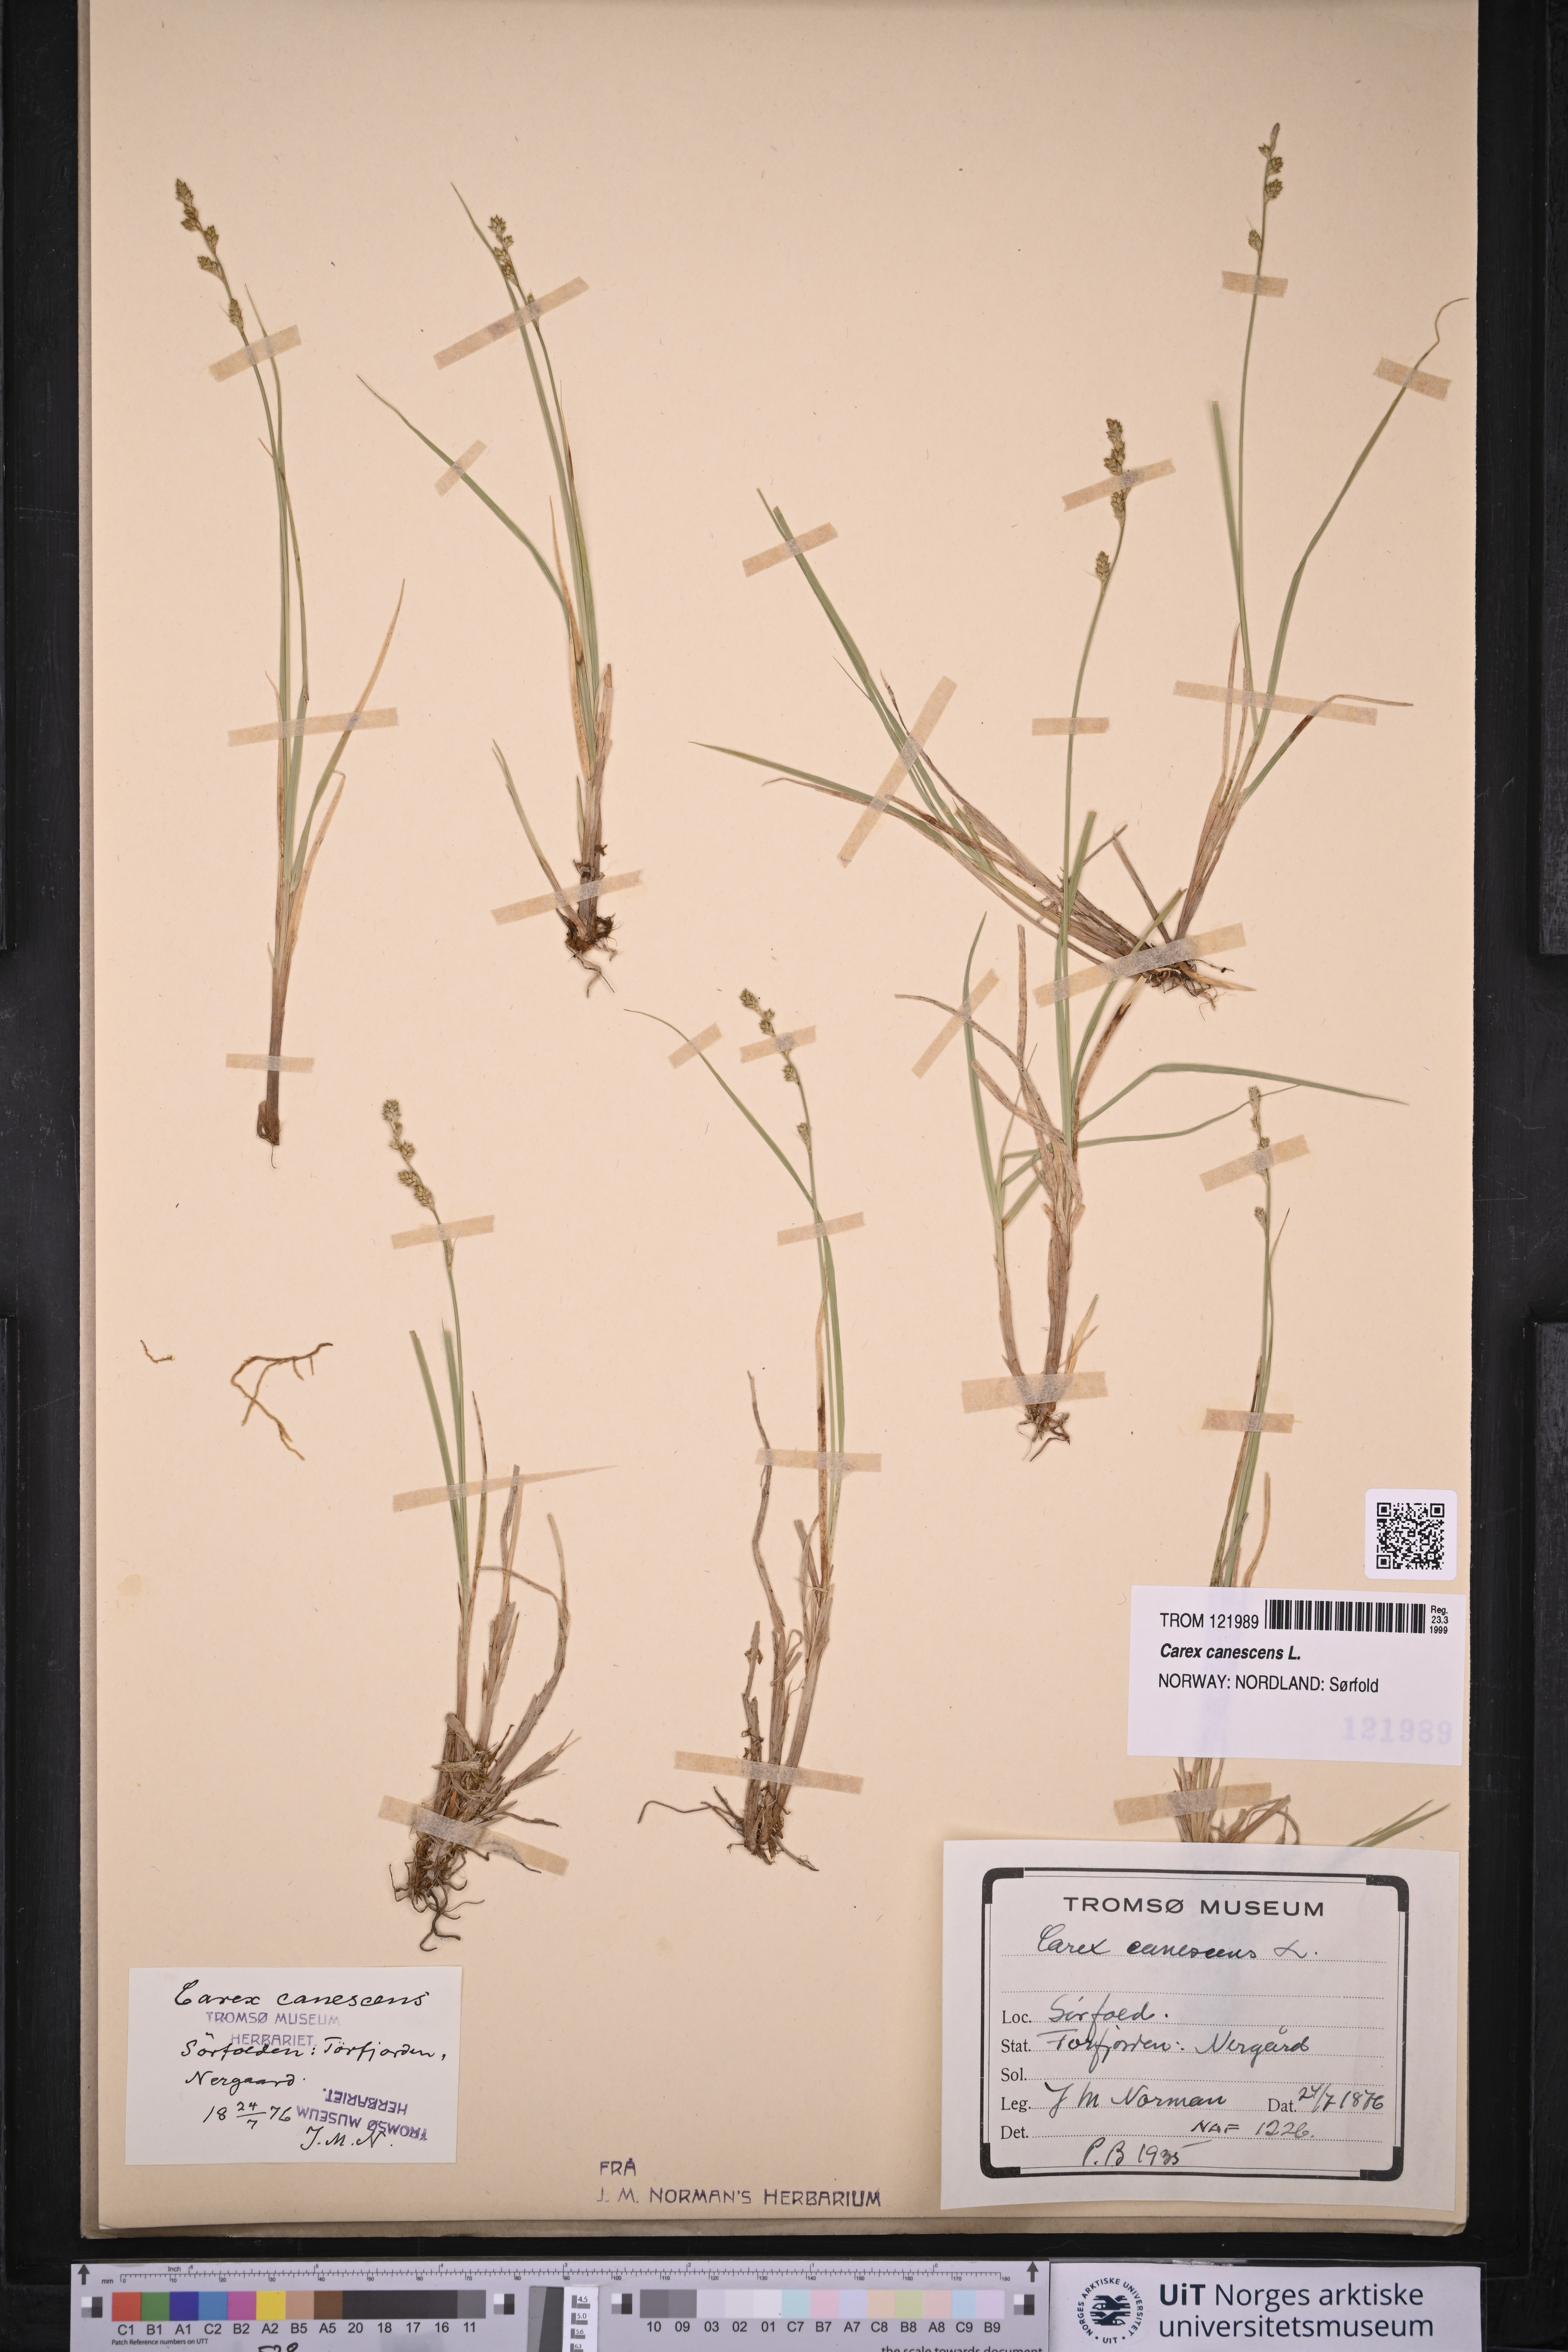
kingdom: Plantae
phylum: Tracheophyta
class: Liliopsida
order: Poales
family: Cyperaceae
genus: Carex
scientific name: Carex canescens
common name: White sedge
